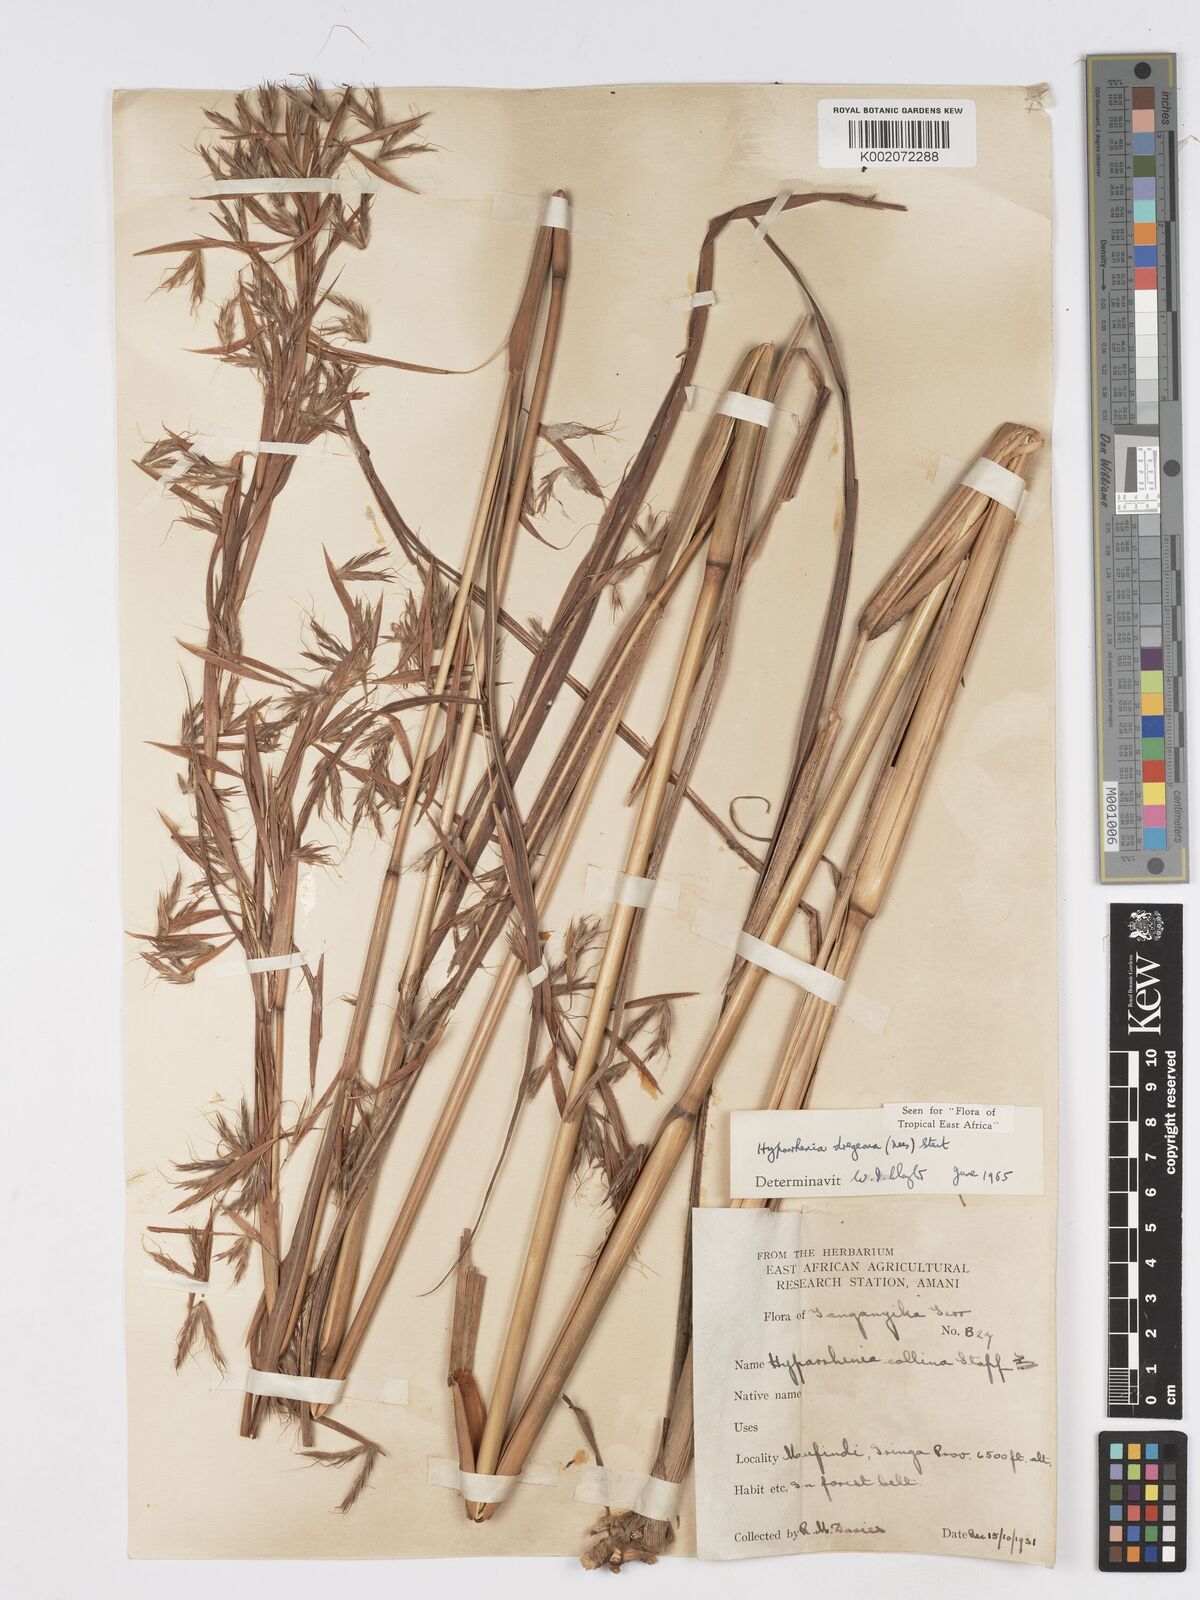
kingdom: Plantae
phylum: Tracheophyta
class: Liliopsida
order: Poales
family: Poaceae
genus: Hyparrhenia
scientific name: Hyparrhenia dregeana
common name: Silky thatching grass
